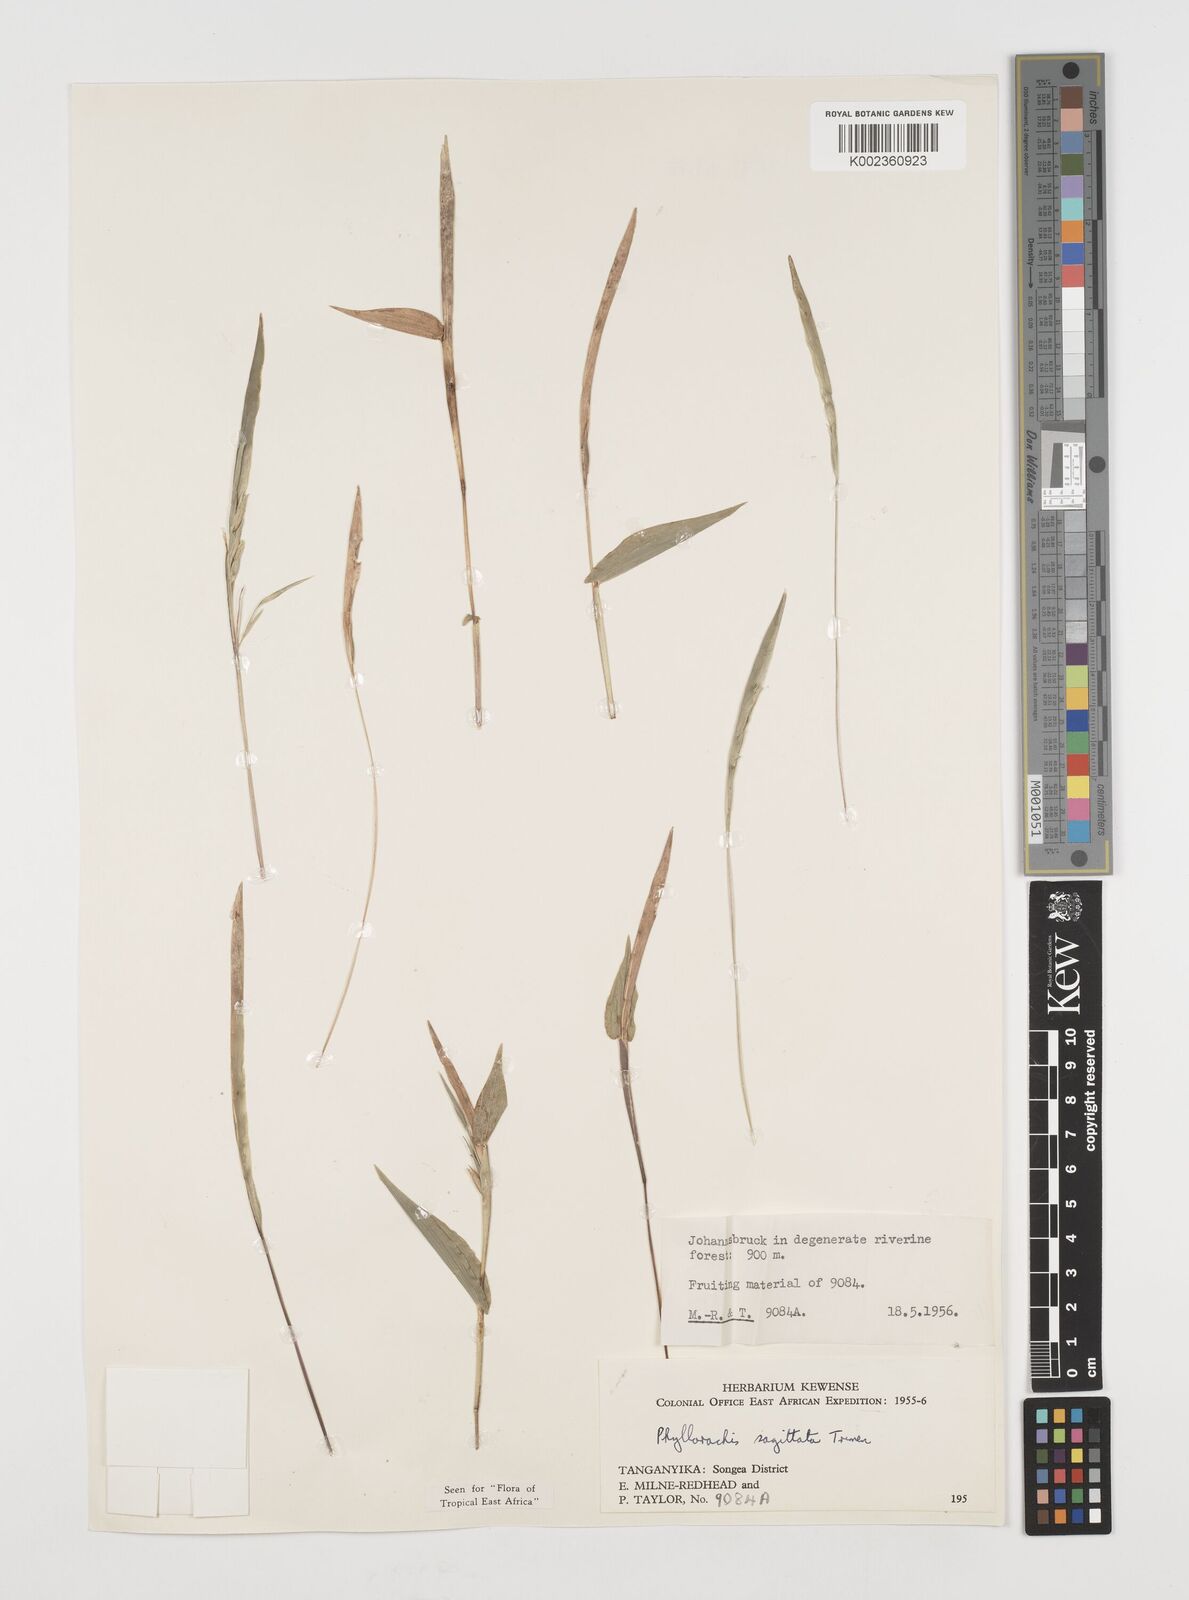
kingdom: Plantae
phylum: Tracheophyta
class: Liliopsida
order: Poales
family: Poaceae
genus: Phyllorachis
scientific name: Phyllorachis sagittata
